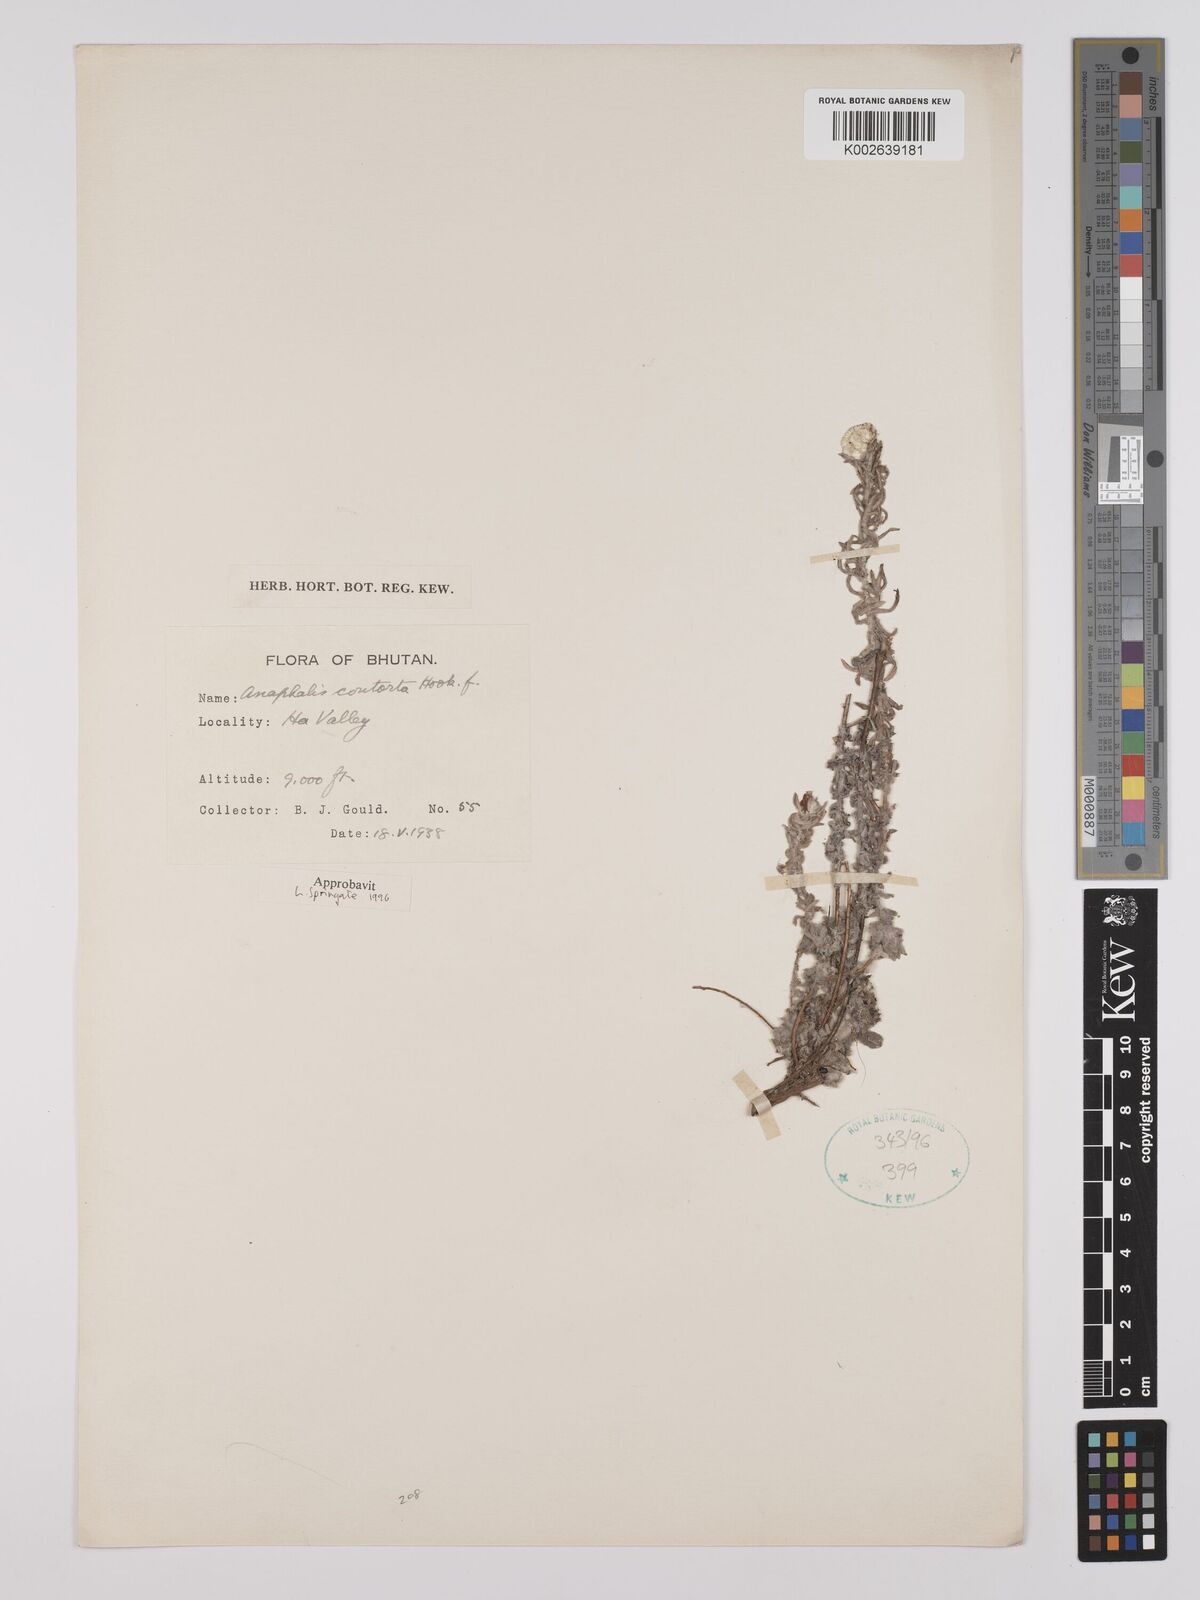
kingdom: Plantae
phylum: Tracheophyta
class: Magnoliopsida
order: Asterales
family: Asteraceae
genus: Anaphalis
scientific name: Anaphalis contorta
